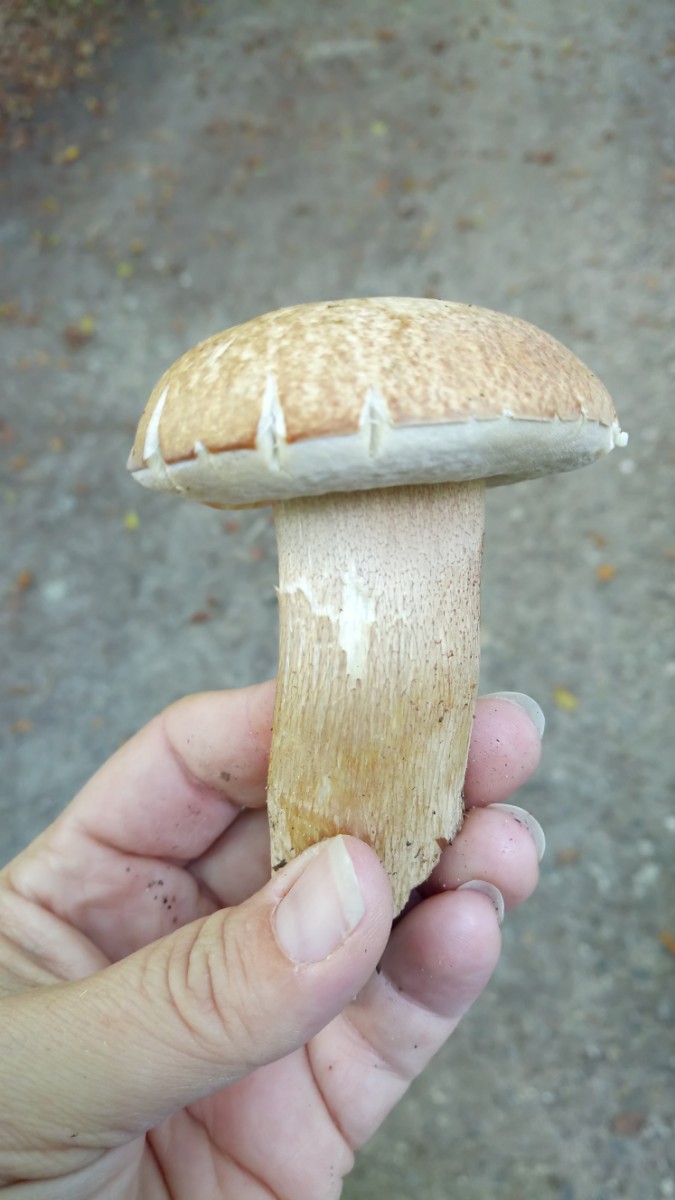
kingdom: Fungi
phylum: Basidiomycota
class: Agaricomycetes
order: Boletales
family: Boletaceae
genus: Boletus
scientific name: Boletus reticulatus
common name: sommer-rørhat
